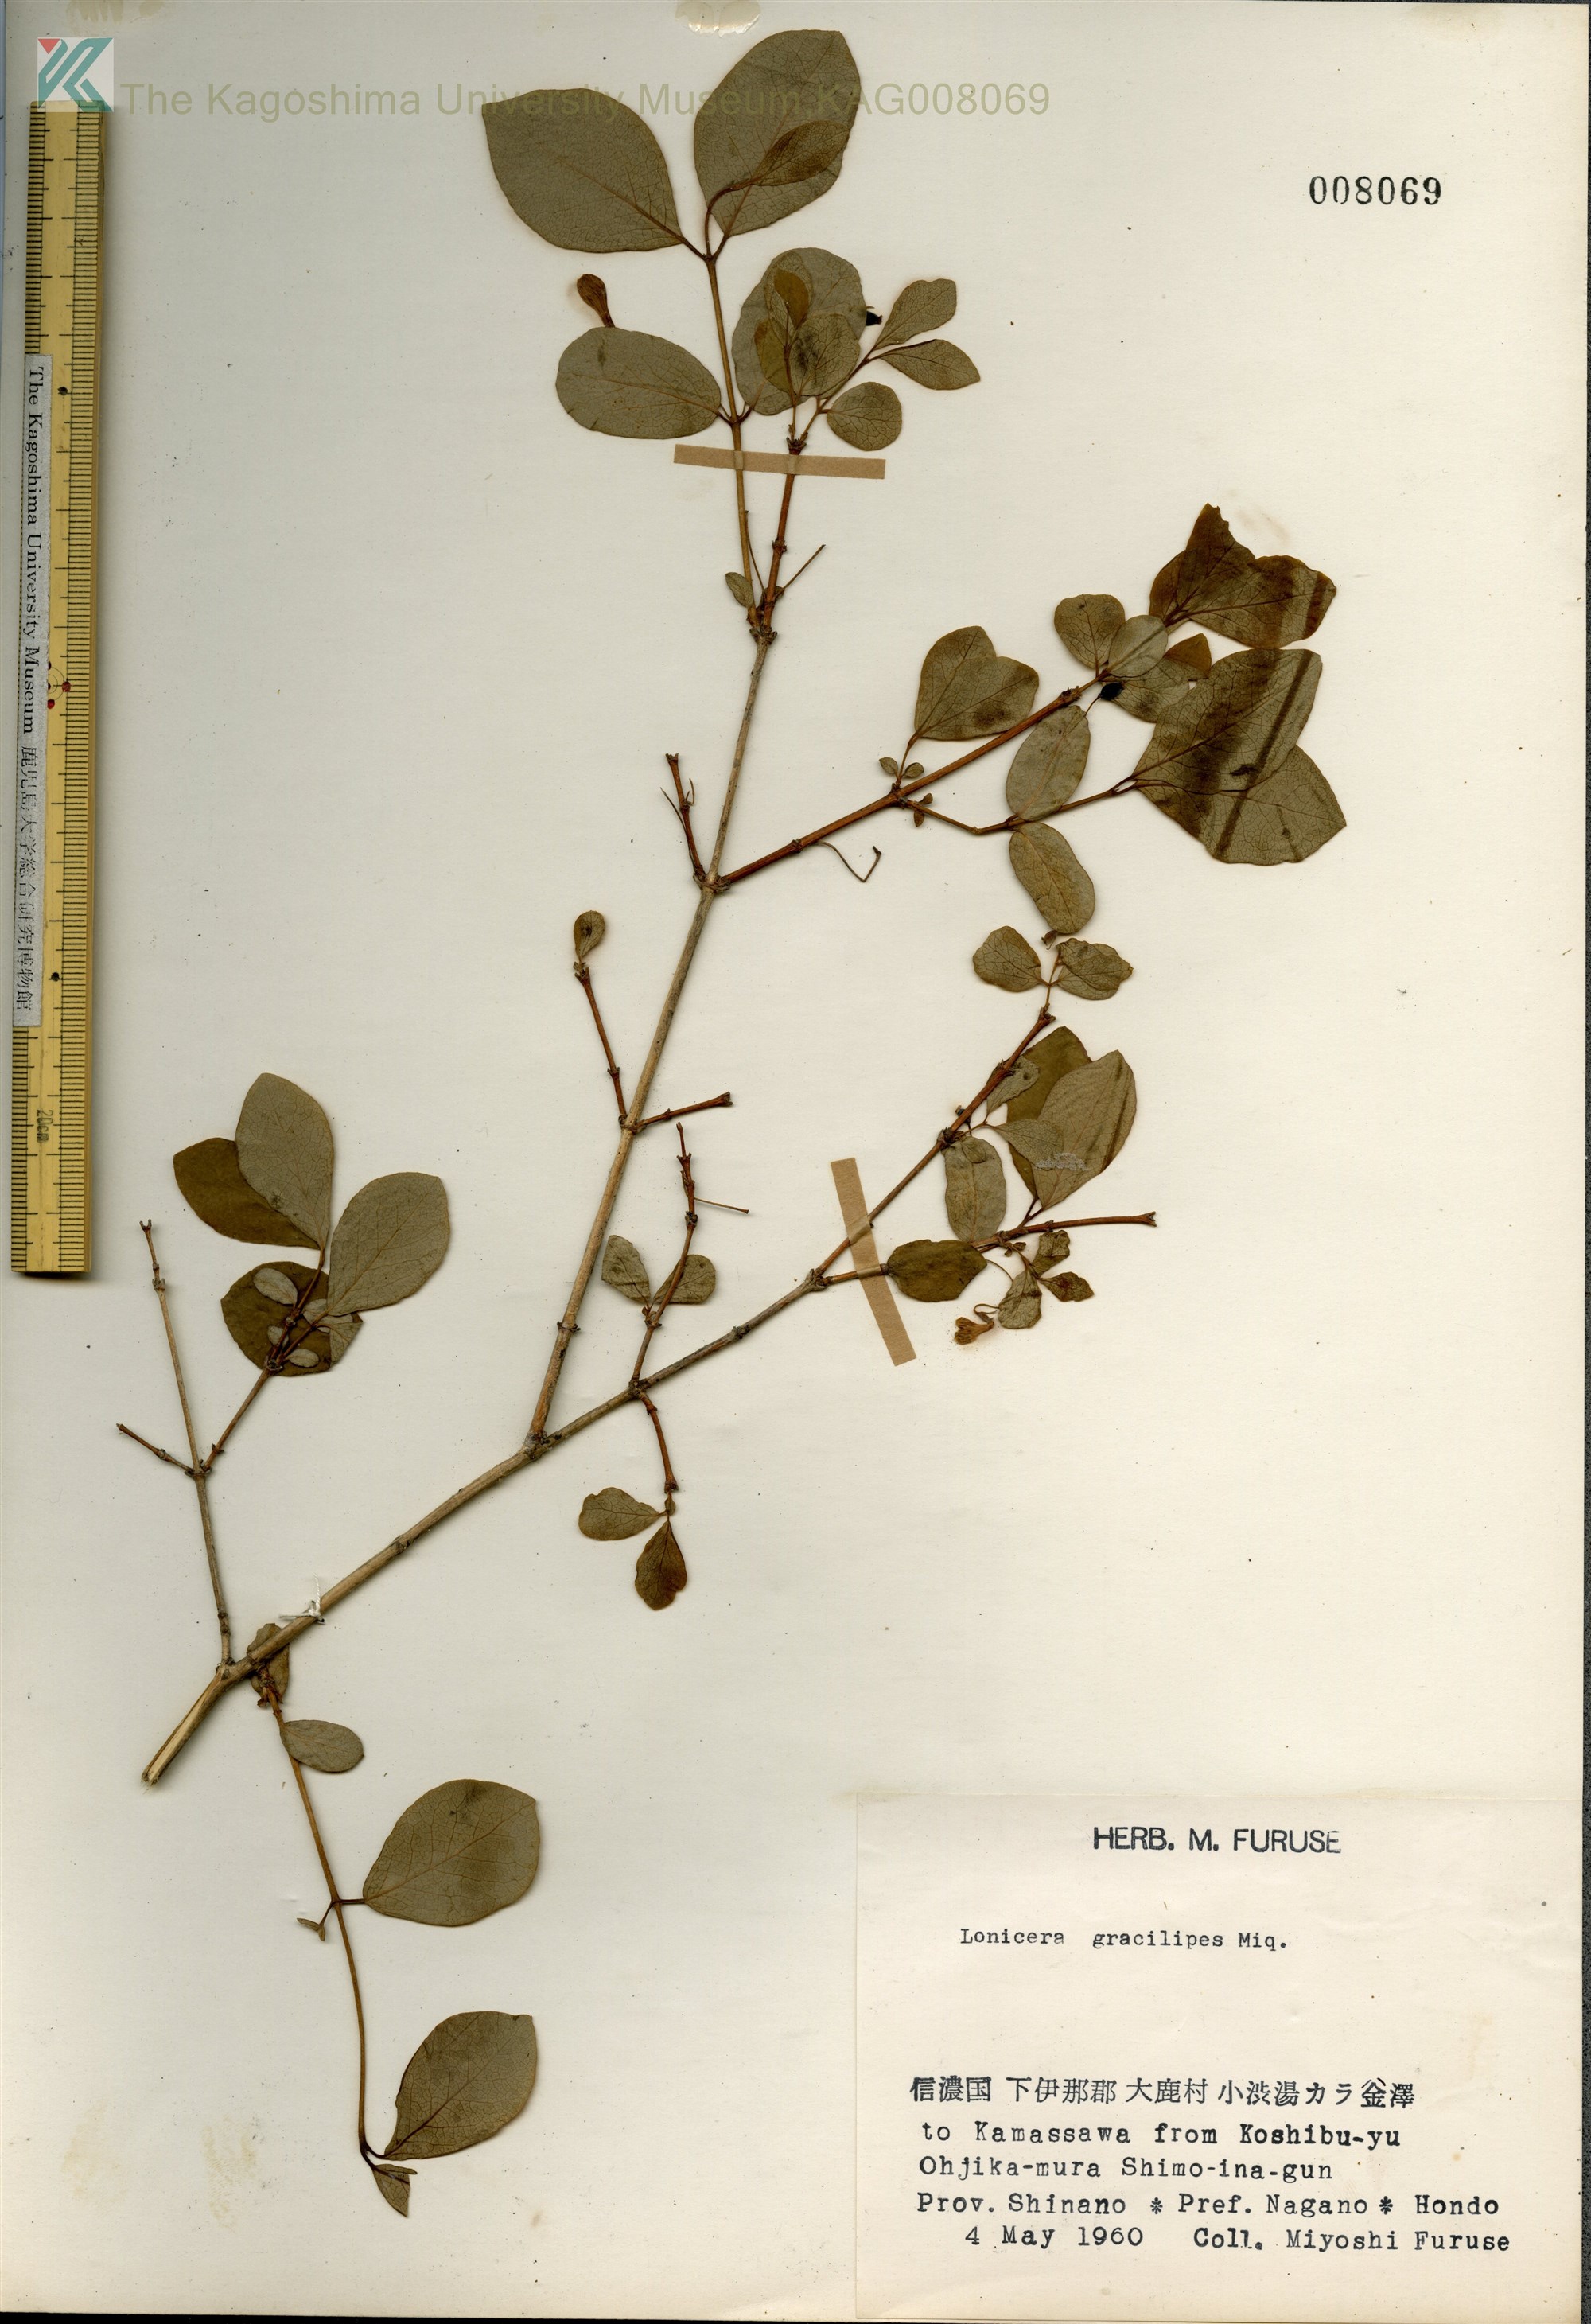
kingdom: Plantae
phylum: Tracheophyta
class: Magnoliopsida
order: Dipsacales
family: Caprifoliaceae
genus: Lonicera
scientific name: Lonicera gracilipes
